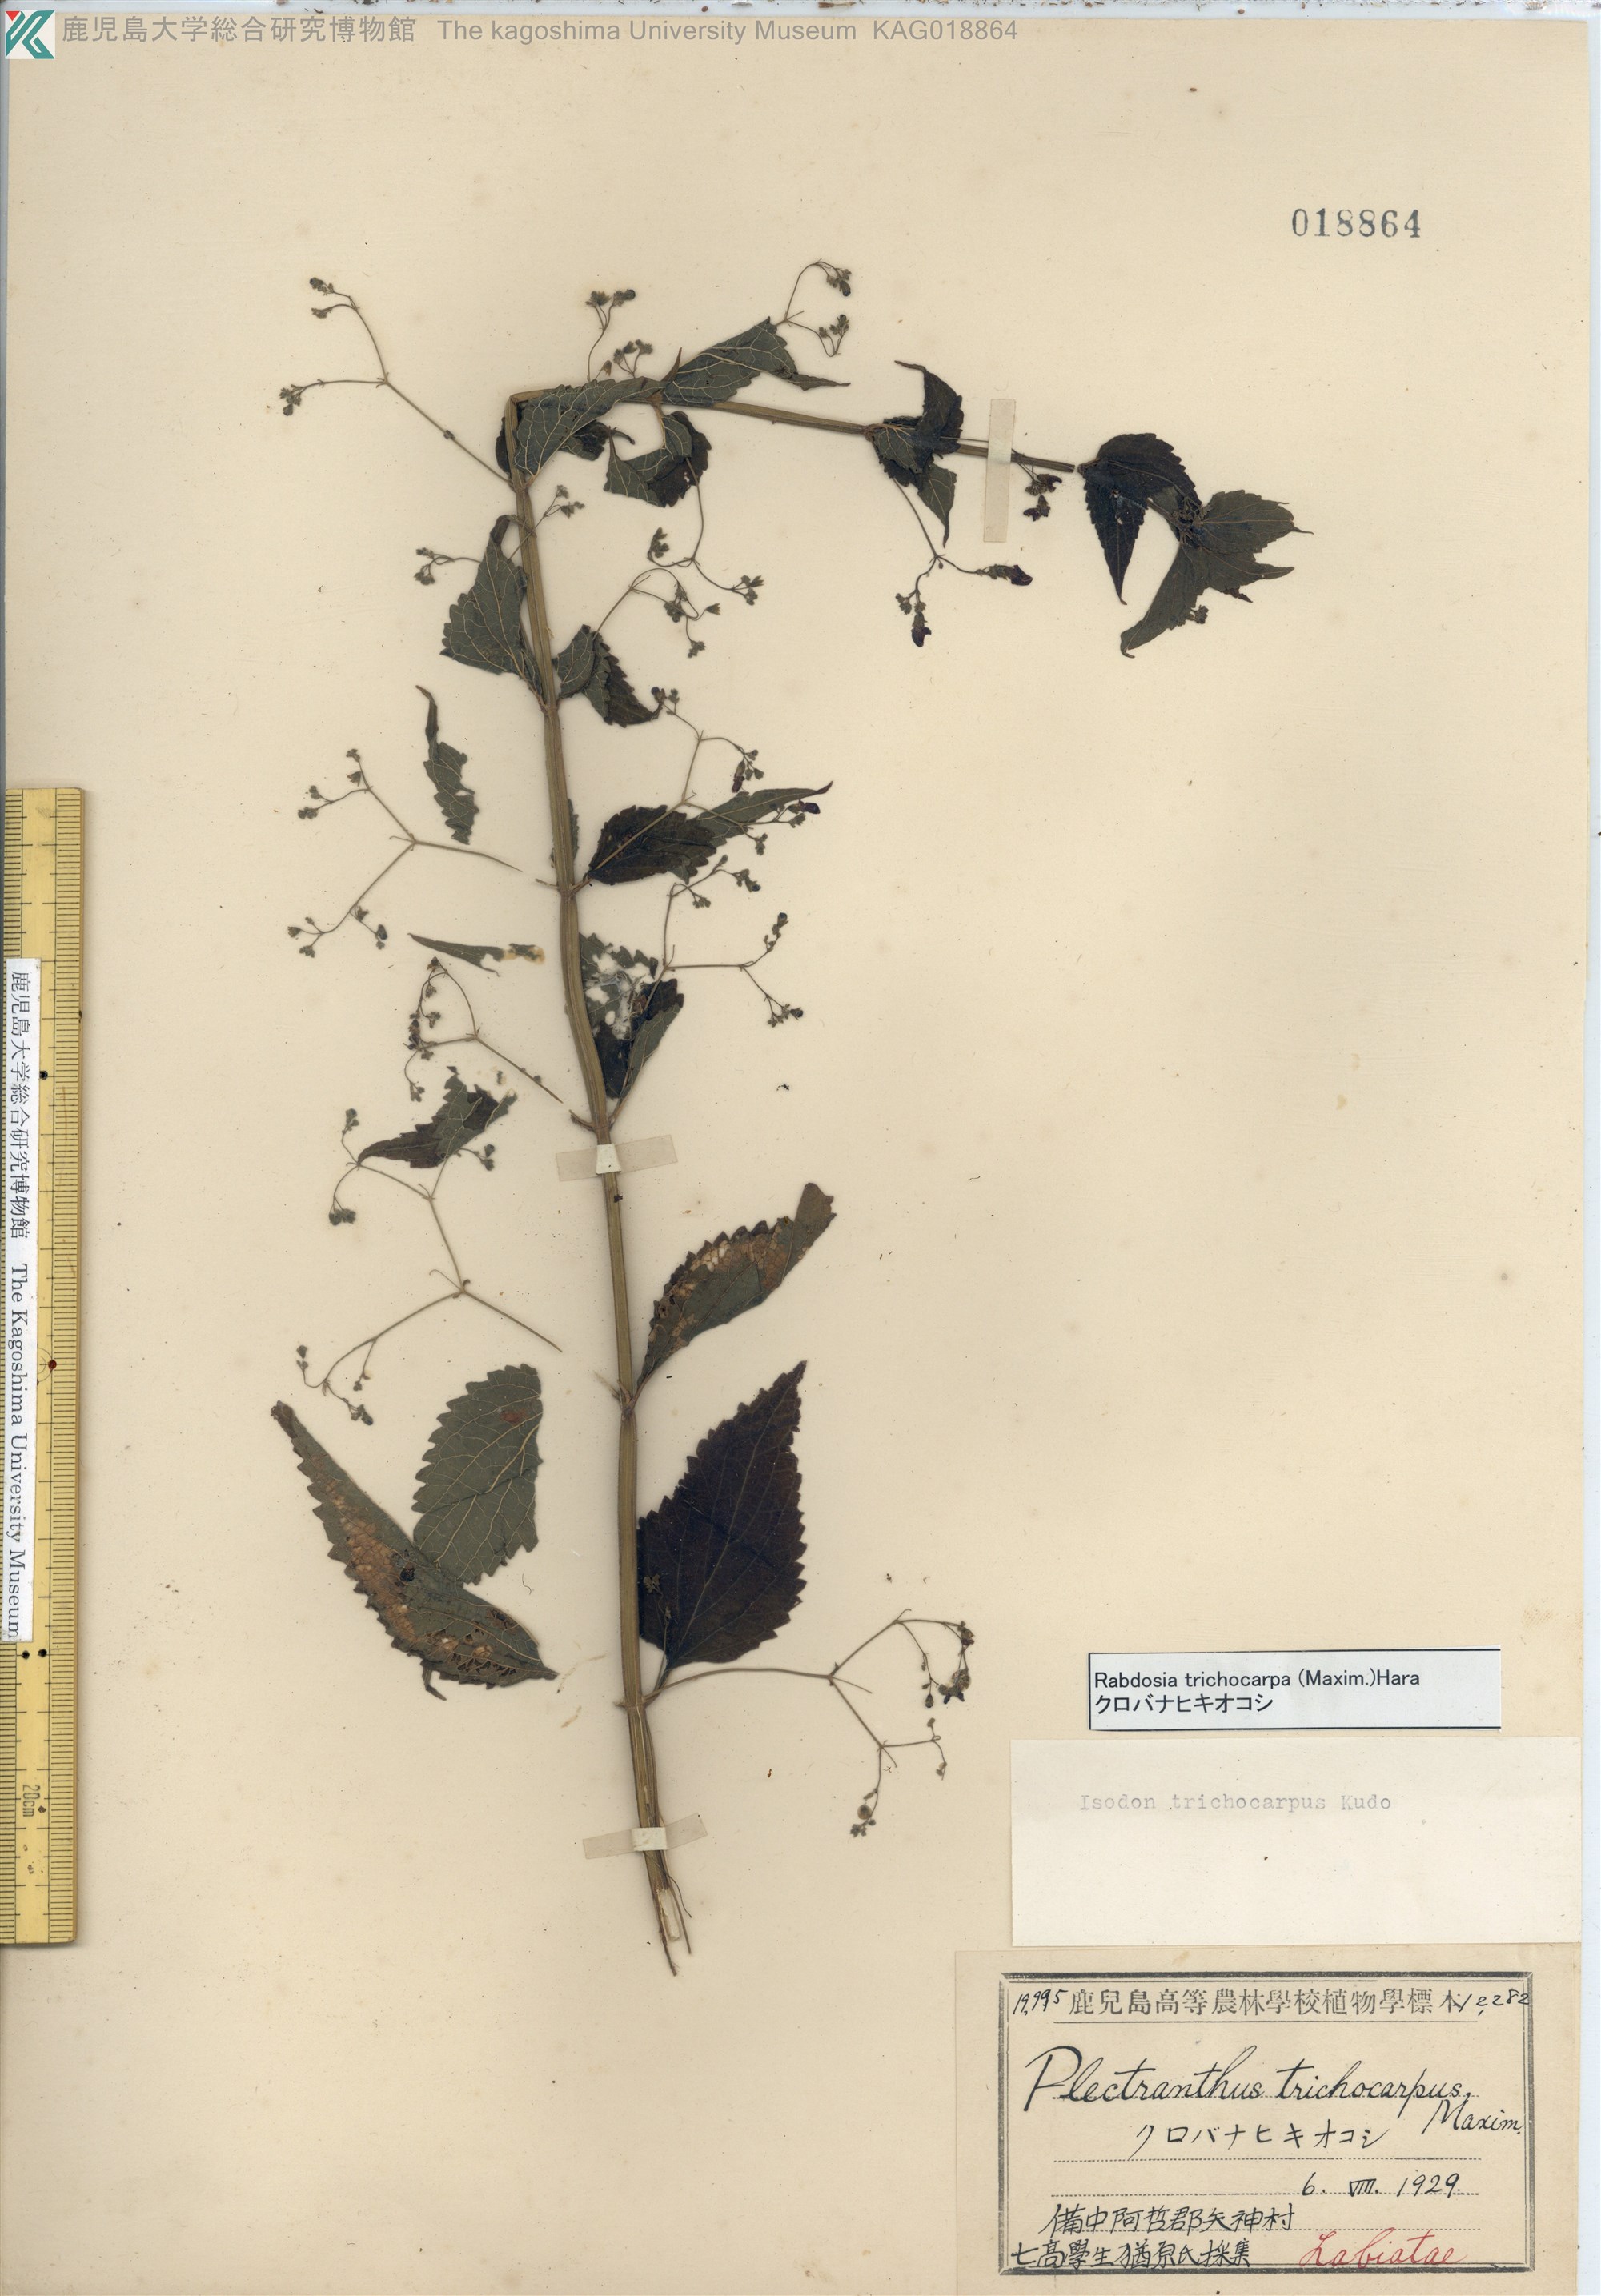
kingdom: Plantae
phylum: Tracheophyta
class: Magnoliopsida
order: Lamiales
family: Lamiaceae
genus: Isodon
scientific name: Isodon trichocarpus
